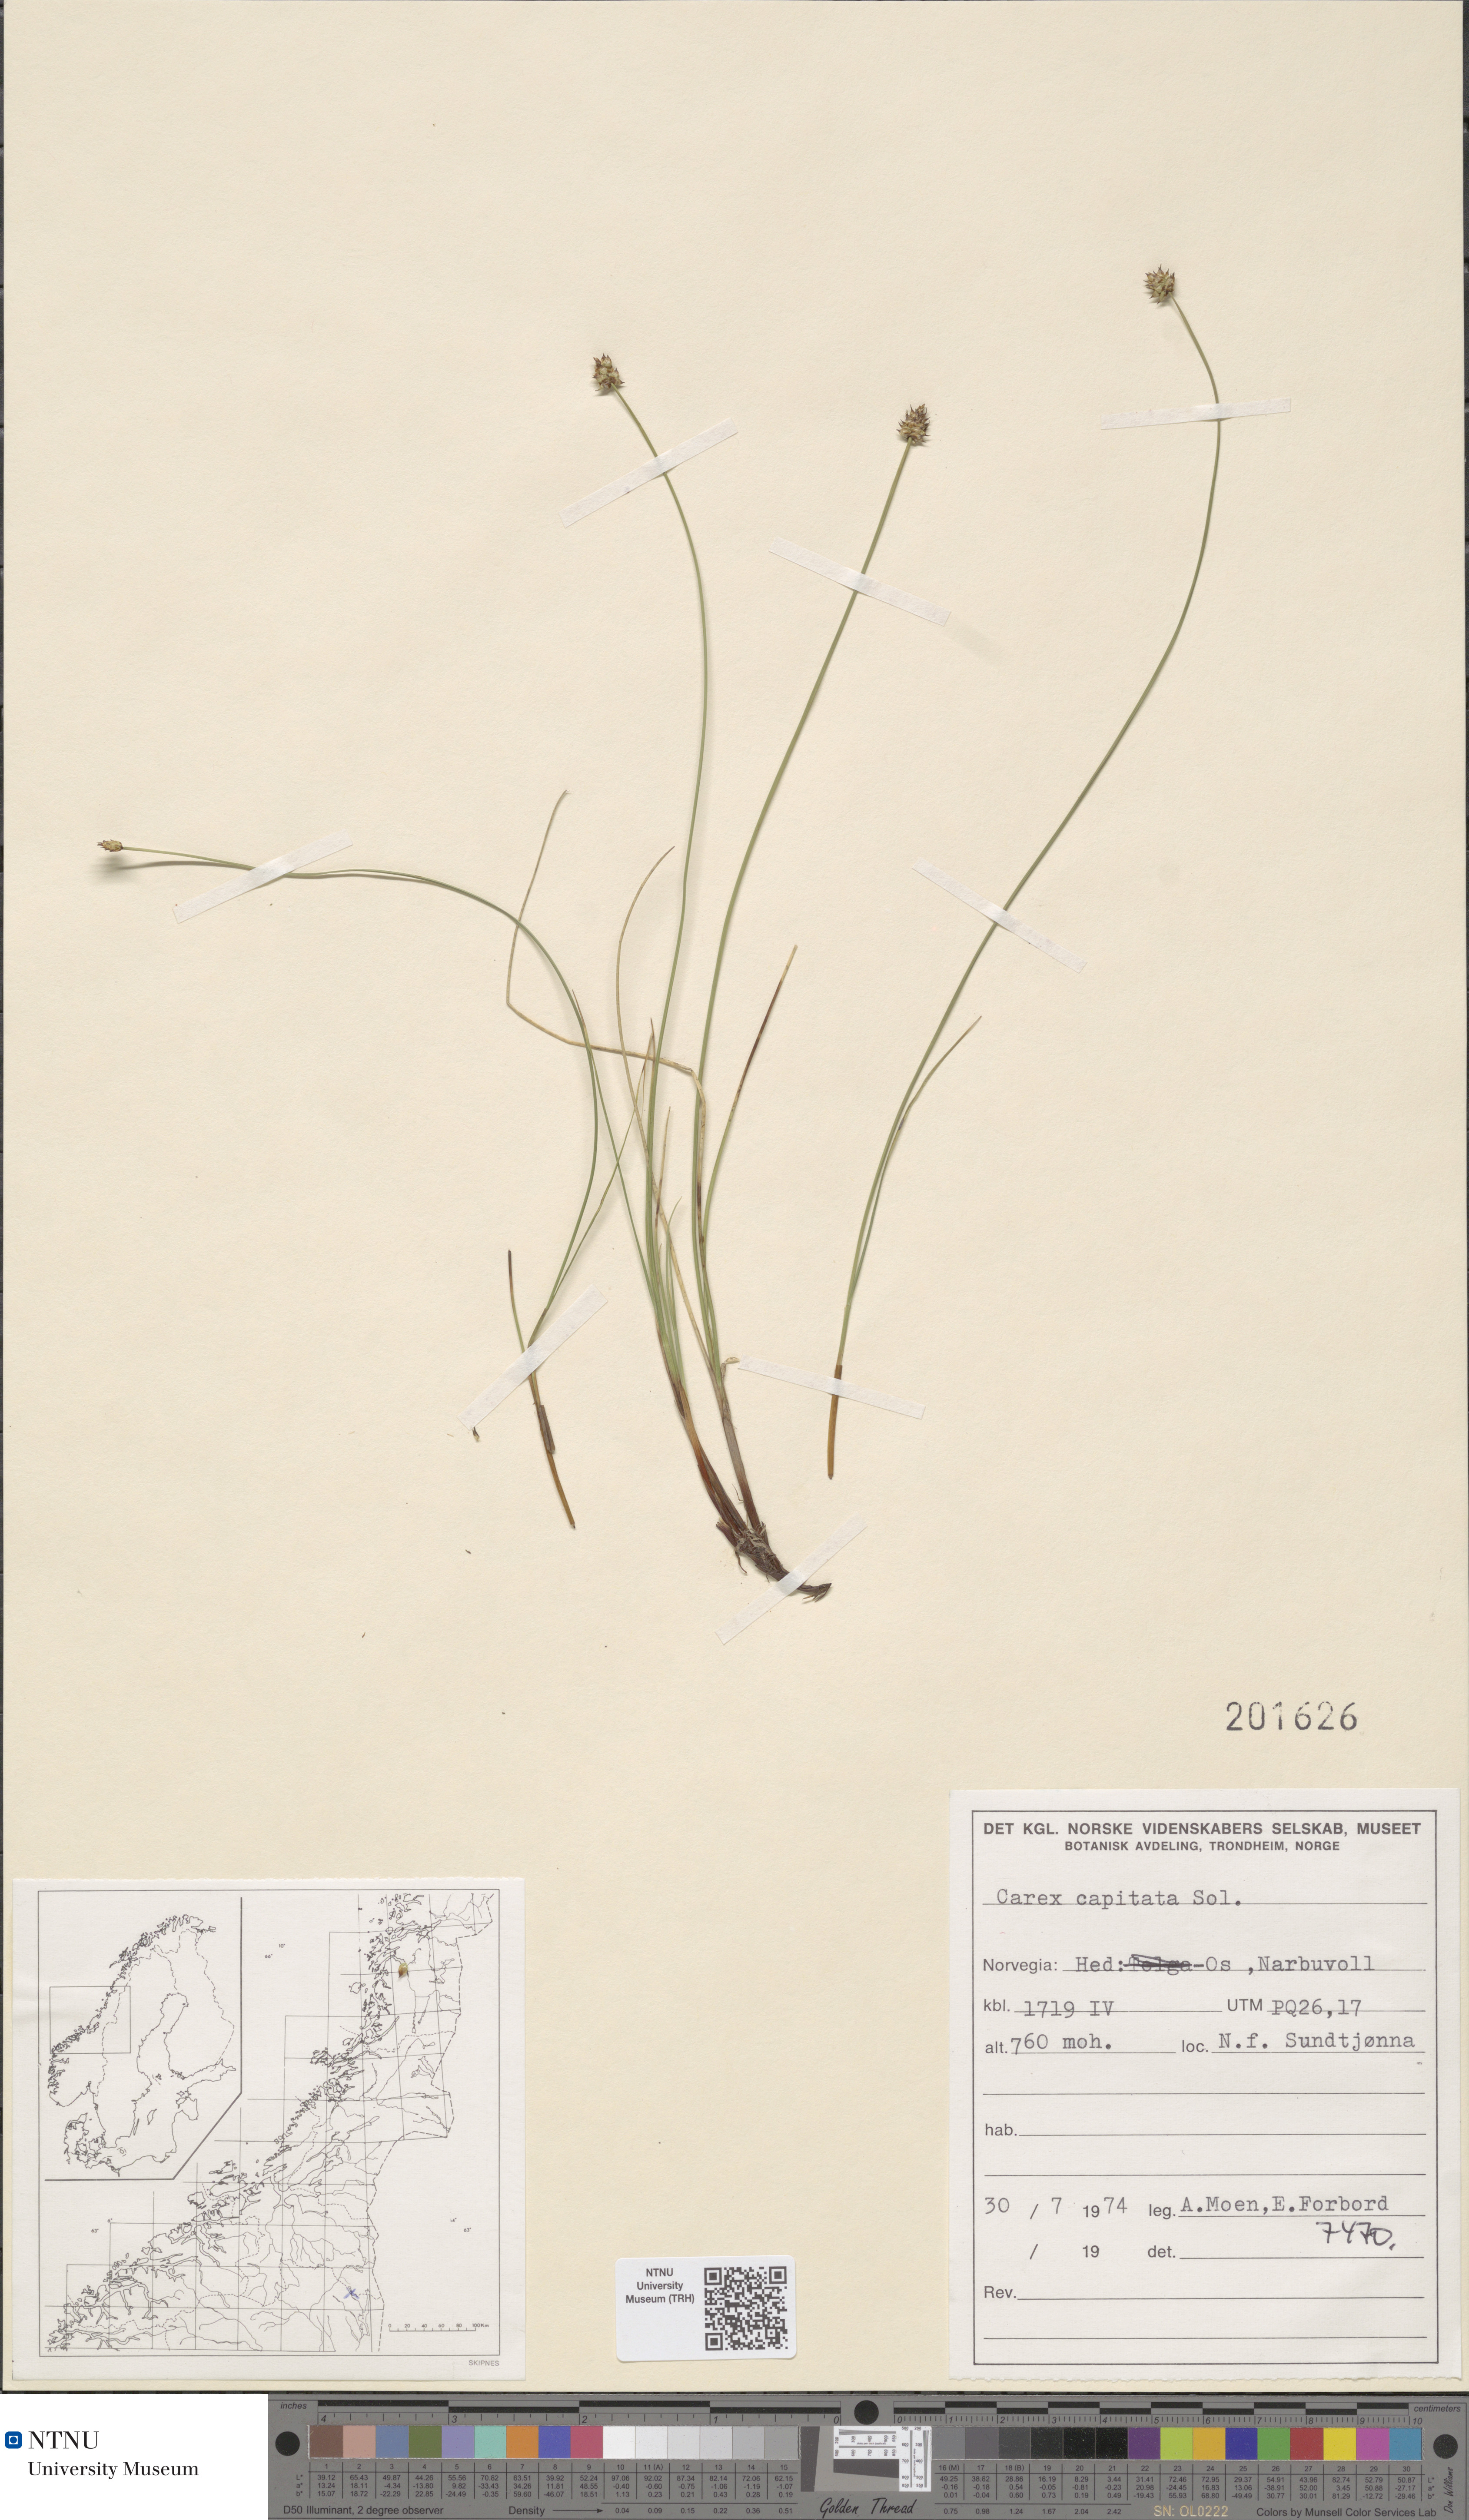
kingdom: Plantae
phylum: Tracheophyta
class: Liliopsida
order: Poales
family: Cyperaceae
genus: Carex
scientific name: Carex capitata
